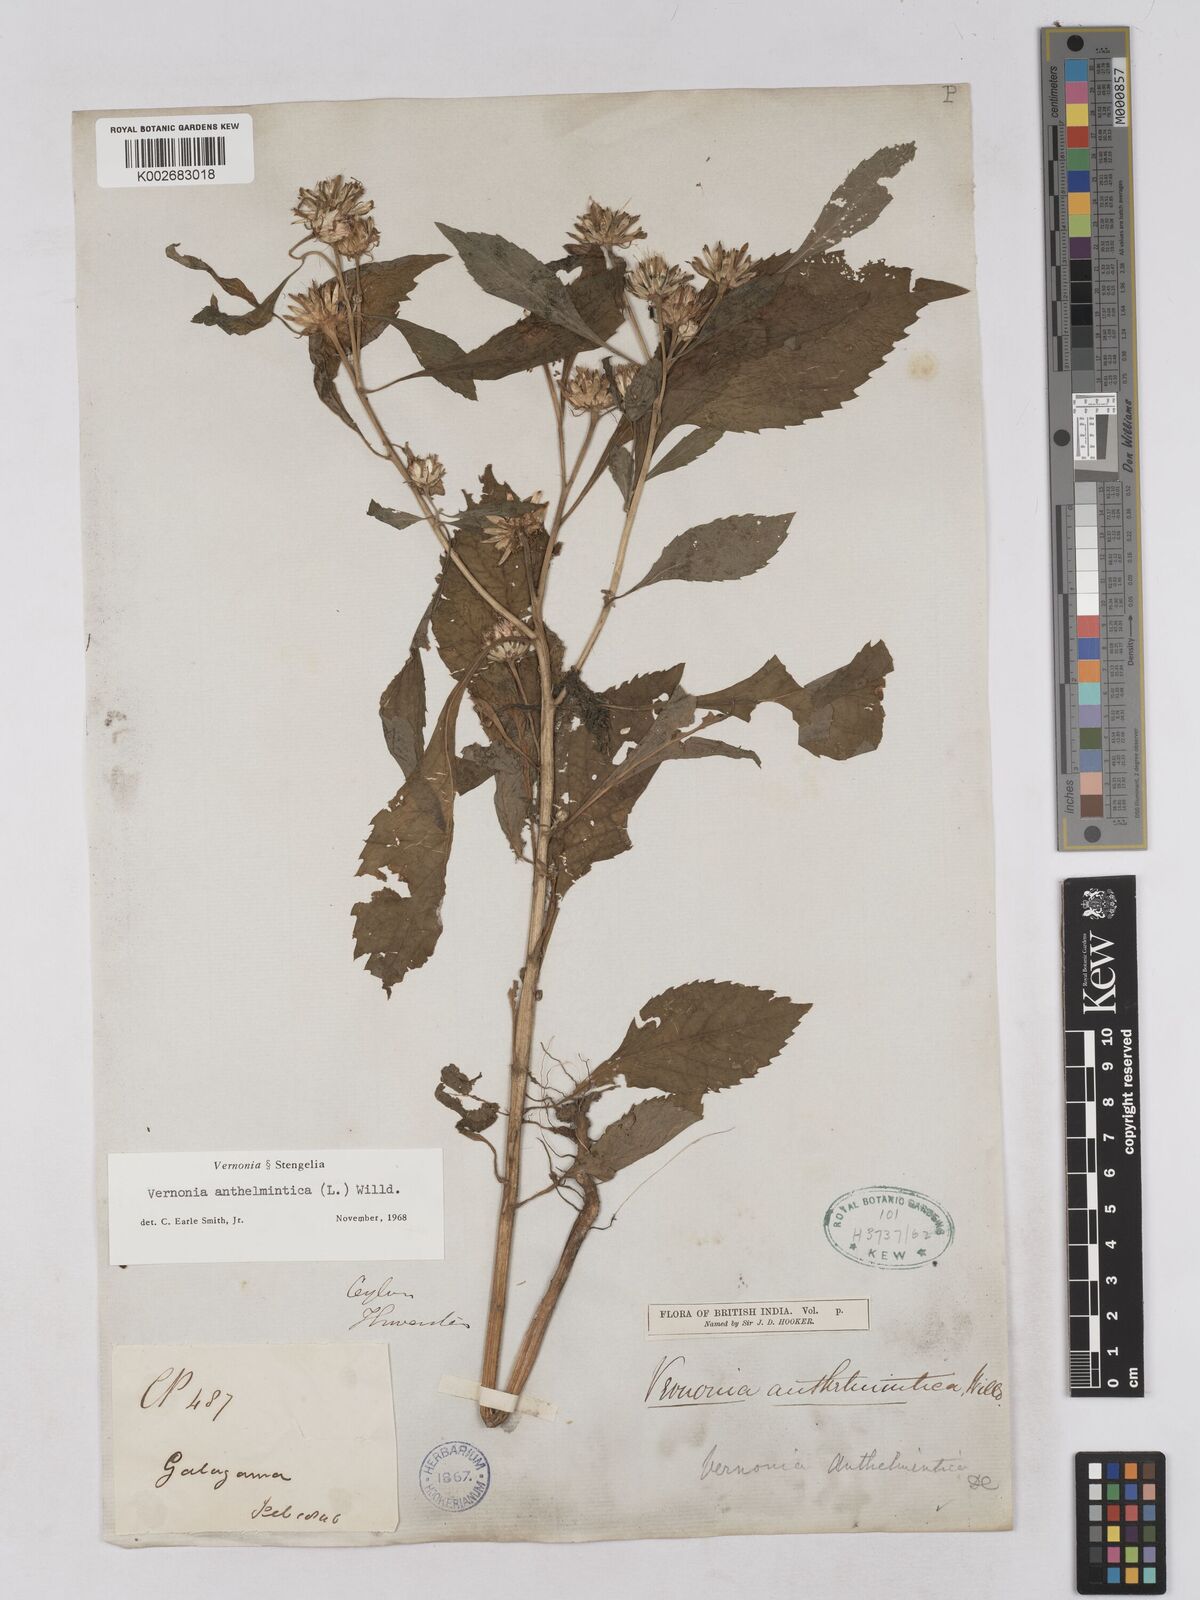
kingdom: Plantae
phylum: Tracheophyta
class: Magnoliopsida
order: Asterales
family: Asteraceae
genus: Baccharoides
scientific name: Baccharoides anthelmintica
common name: Kinka-oil
